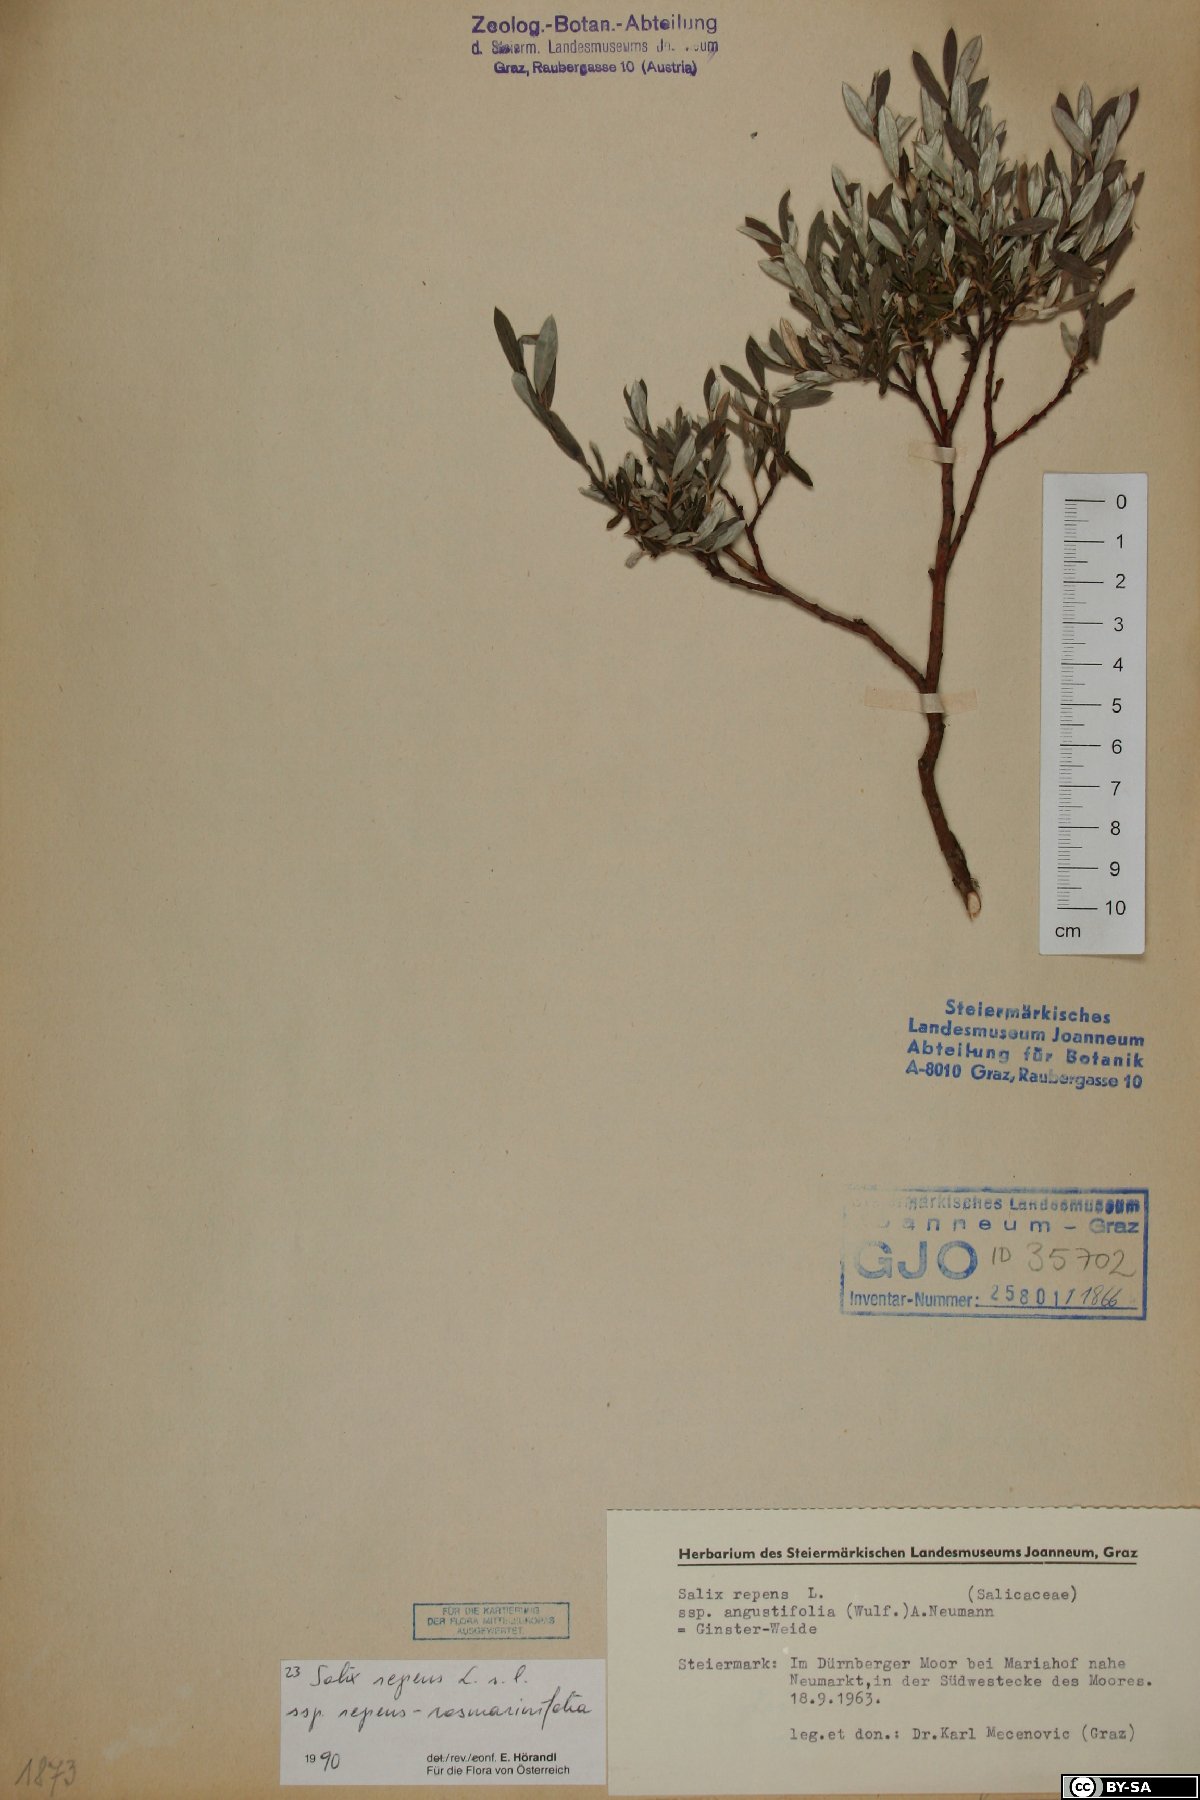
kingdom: Plantae
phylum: Tracheophyta
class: Magnoliopsida
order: Malpighiales
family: Salicaceae
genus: Salix
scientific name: Salix repens
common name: Creeping willow
